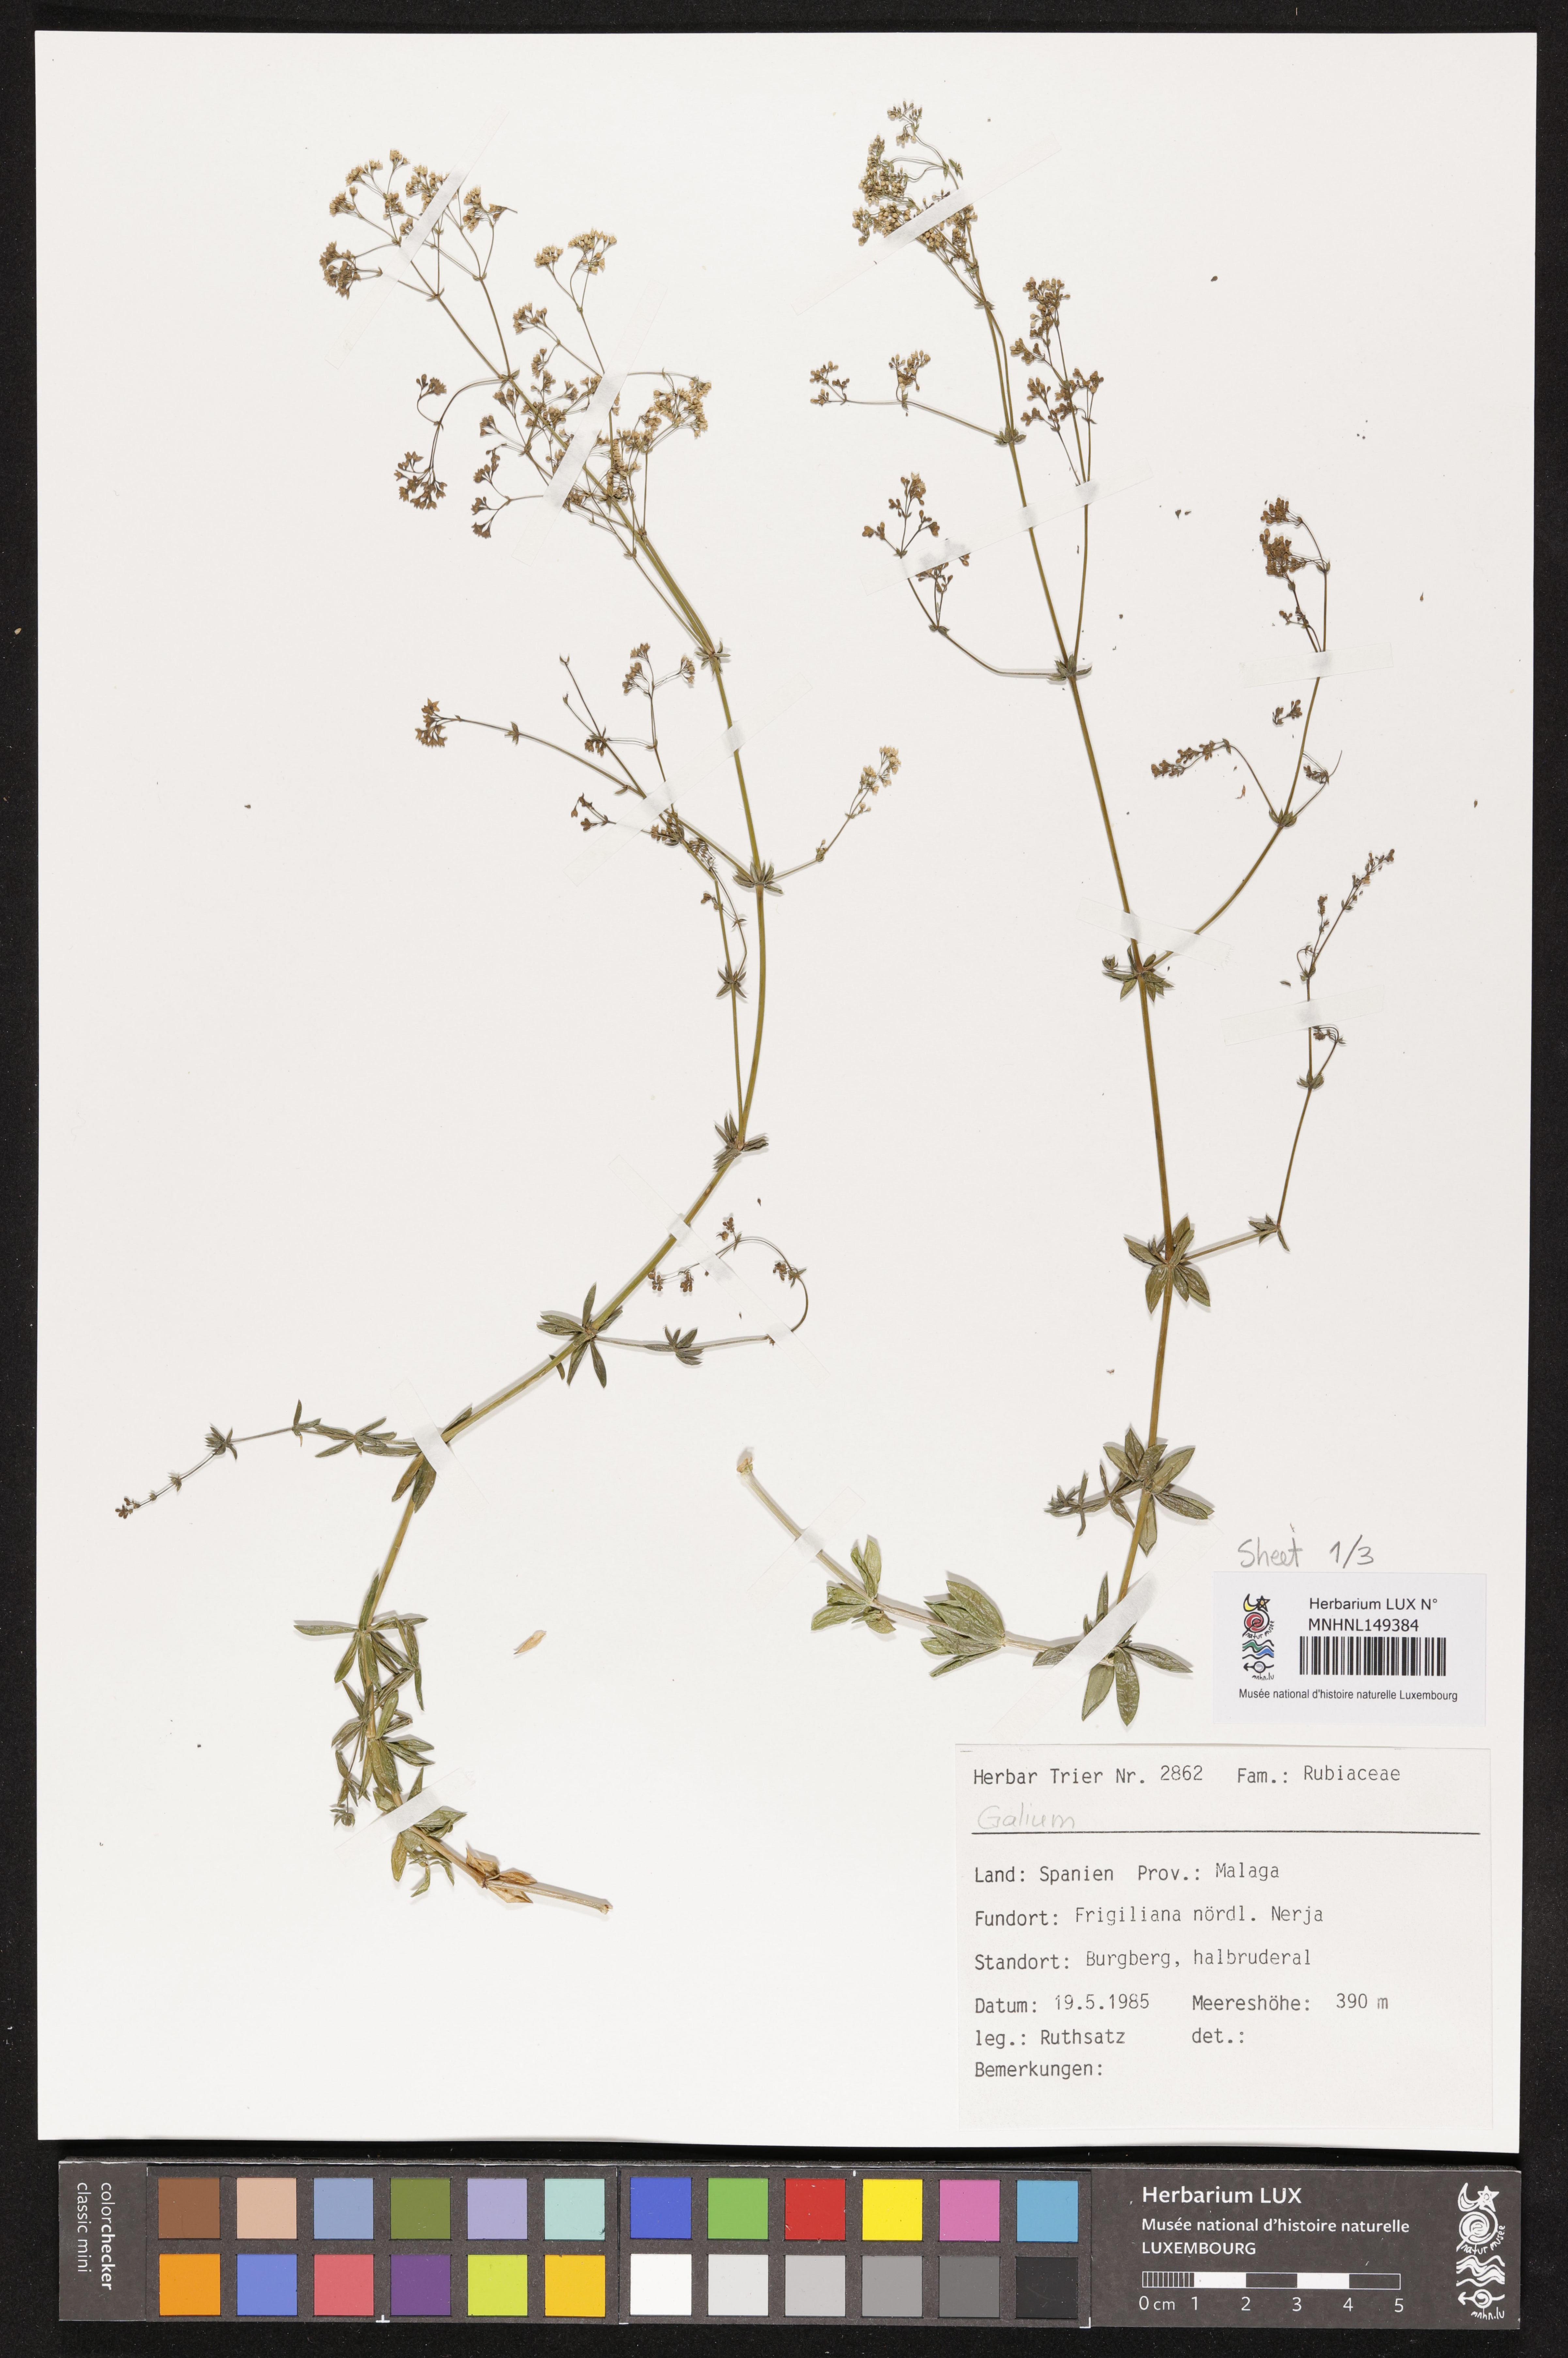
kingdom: Plantae
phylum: Tracheophyta
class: Magnoliopsida
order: Gentianales
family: Rubiaceae
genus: Galium
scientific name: Galium
